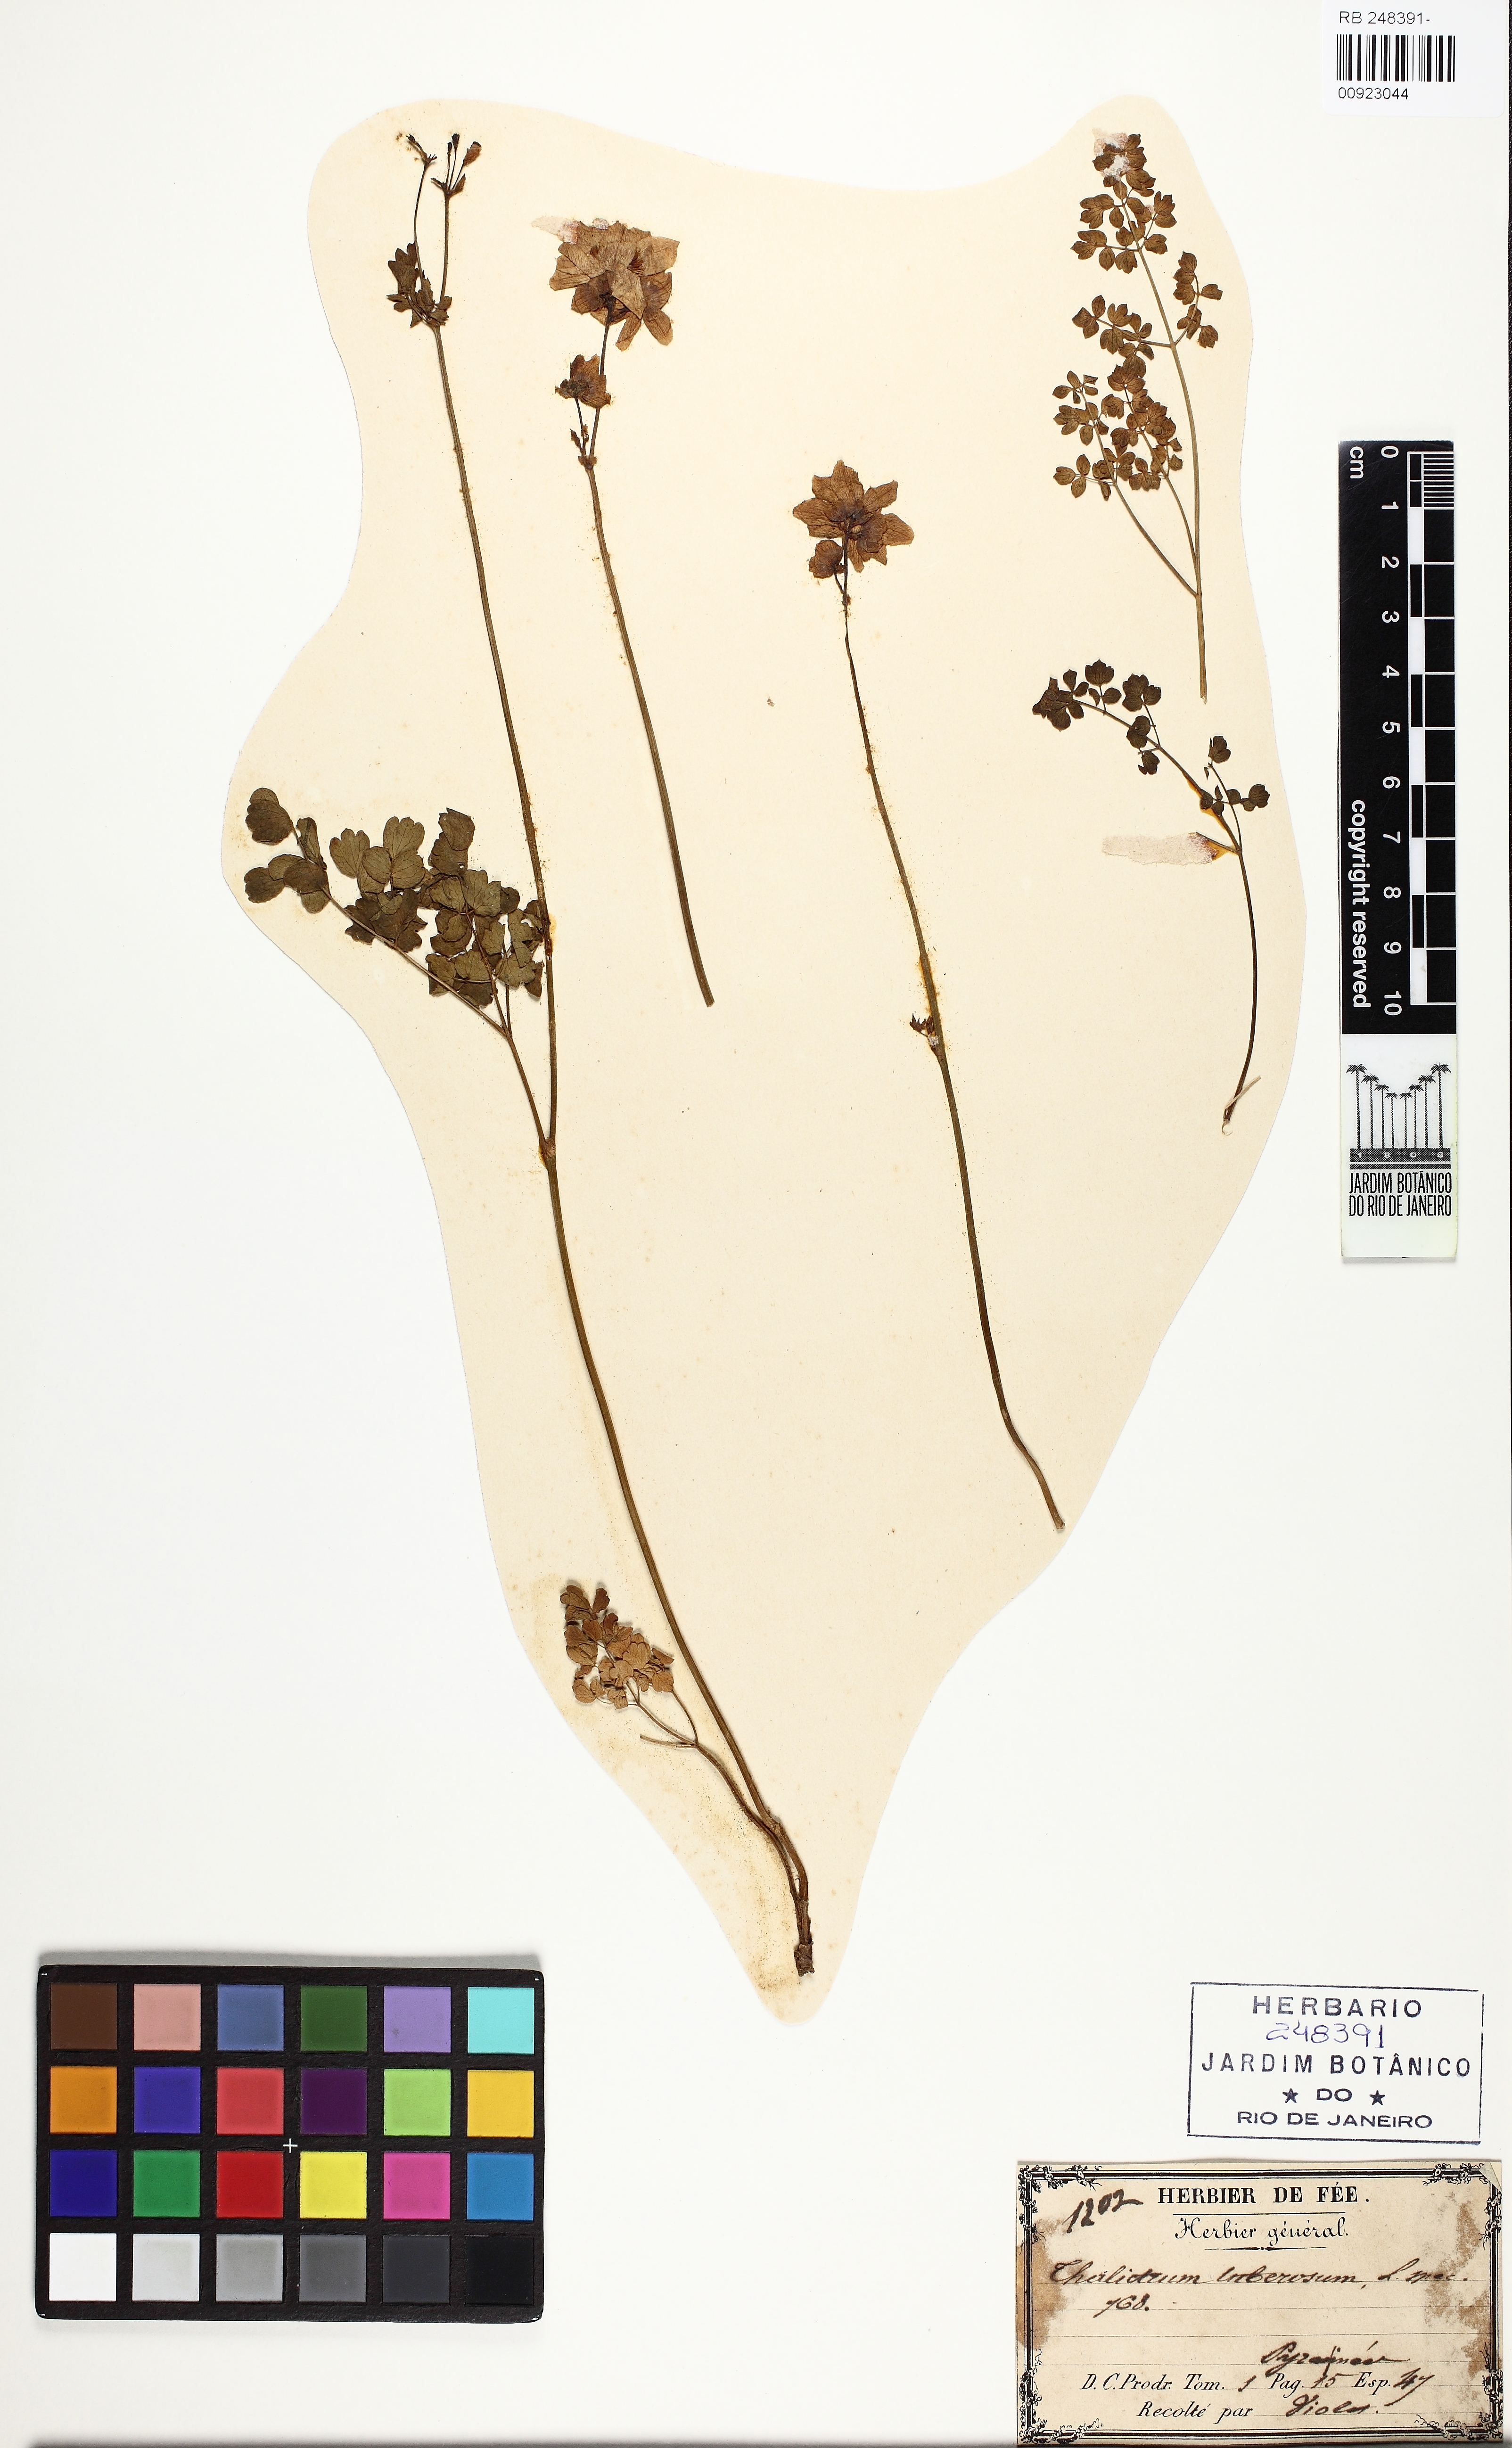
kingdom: Plantae
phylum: Tracheophyta
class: Magnoliopsida
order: Ranunculales
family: Ranunculaceae
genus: Thalictrum
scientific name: Thalictrum tuberosum
